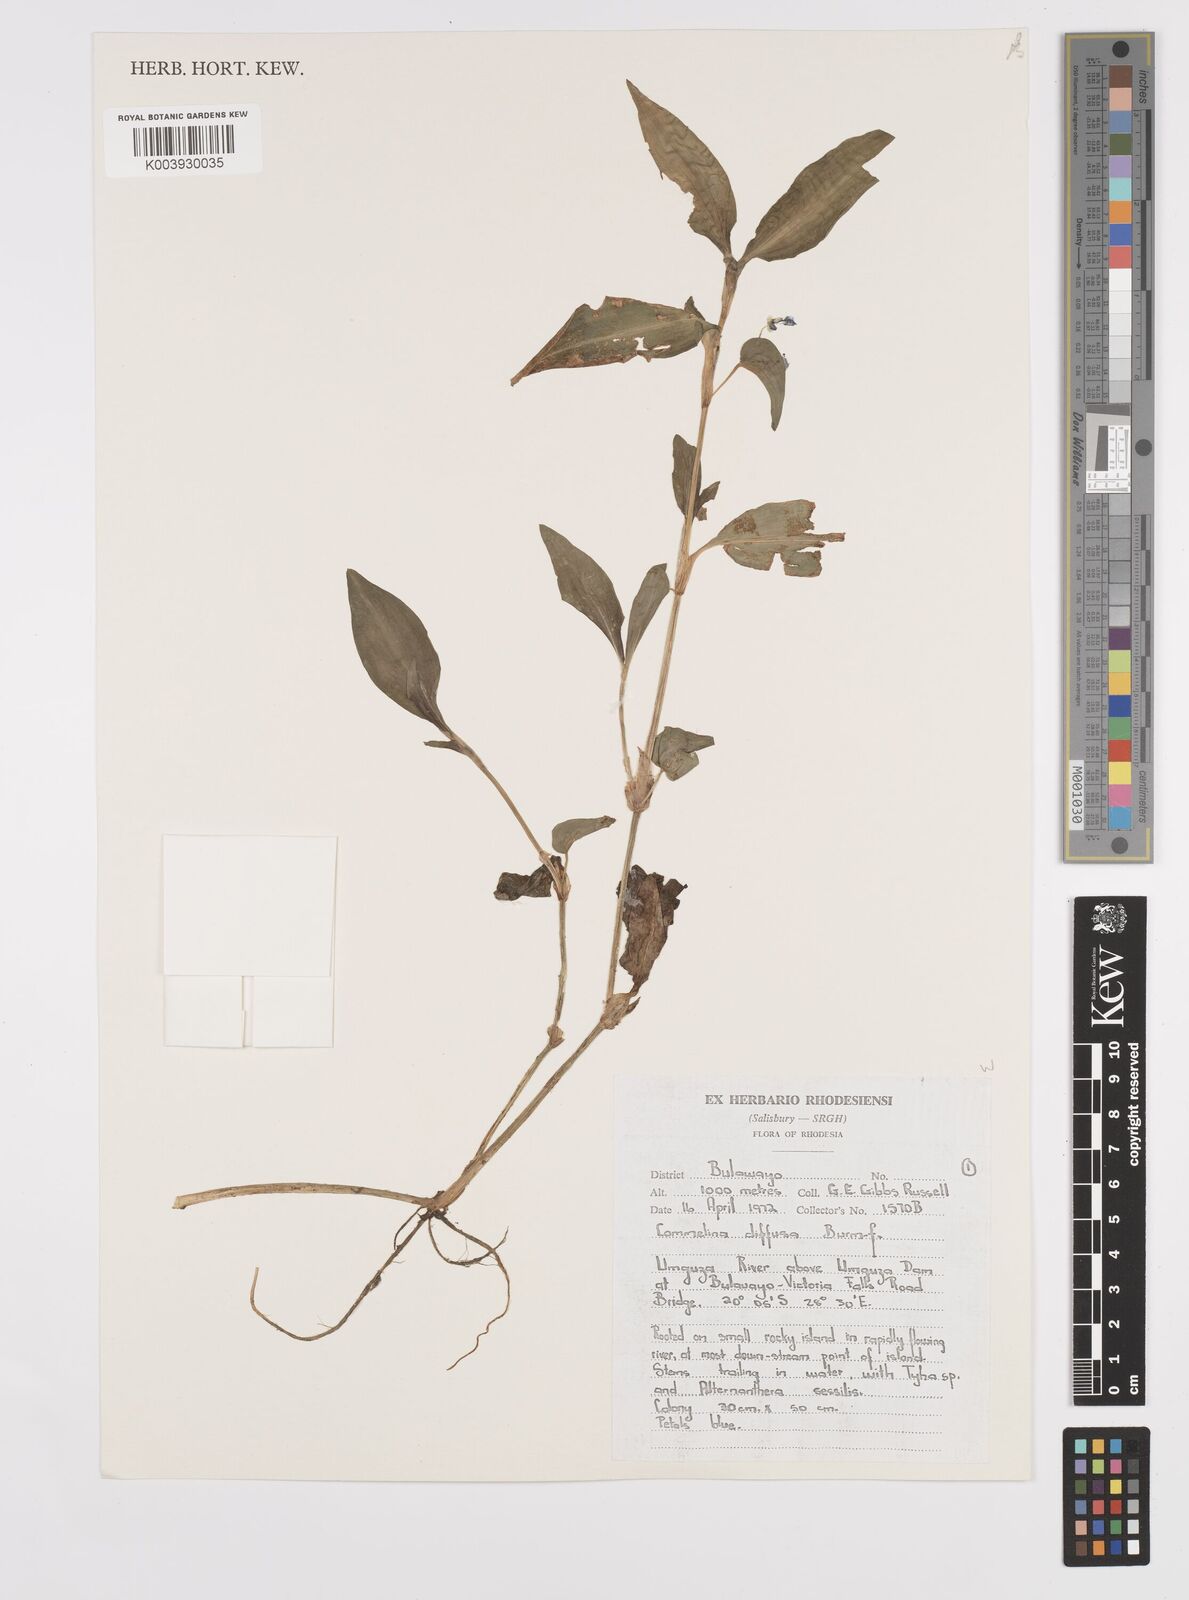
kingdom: Plantae
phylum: Tracheophyta
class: Liliopsida
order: Commelinales
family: Commelinaceae
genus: Commelina
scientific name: Commelina diffusa
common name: Climbing dayflower
